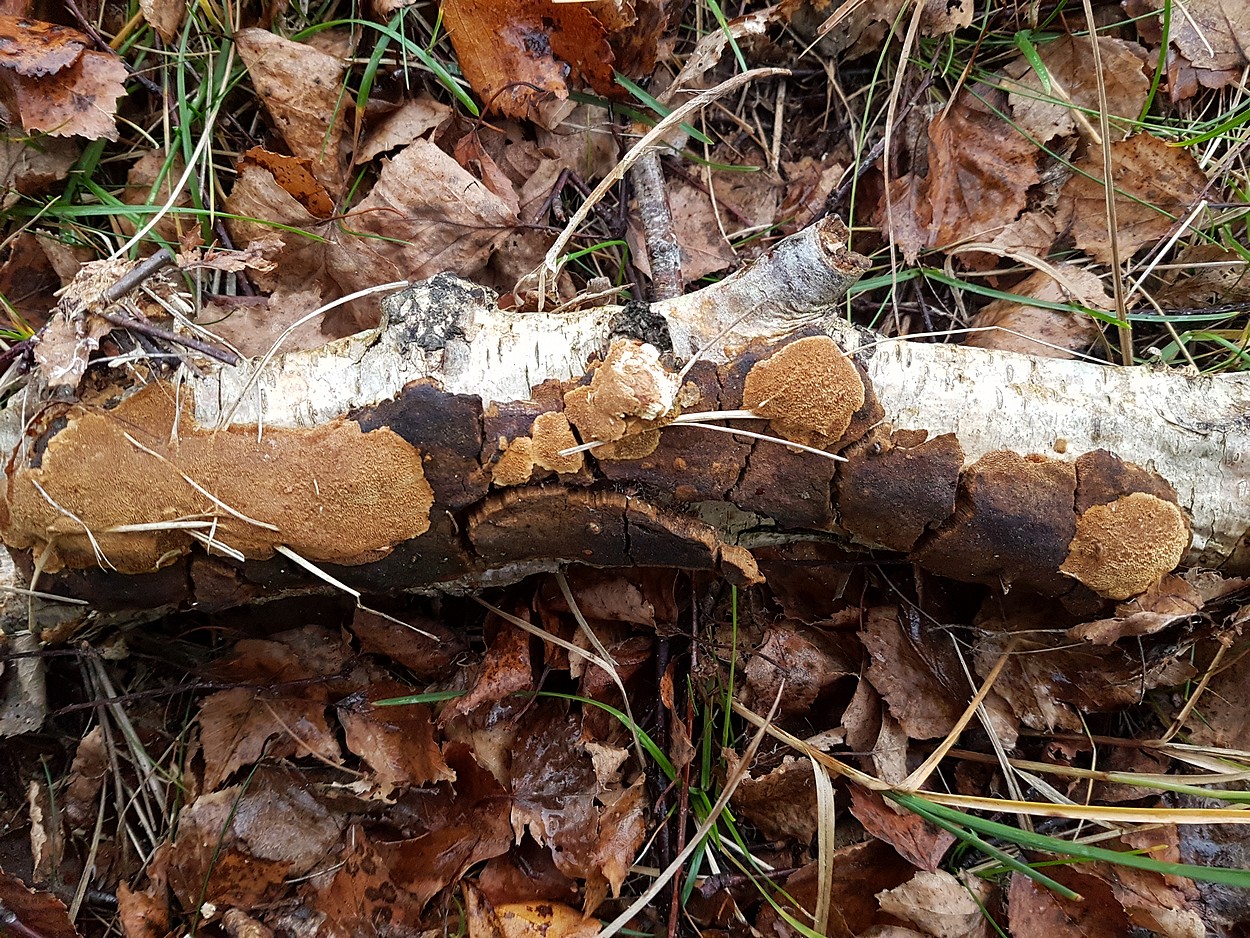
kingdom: Fungi
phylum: Basidiomycota
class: Agaricomycetes
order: Hymenochaetales
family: Hymenochaetaceae
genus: Fuscoporia
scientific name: Fuscoporia ferrea
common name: skorpe-ildporesvamp
